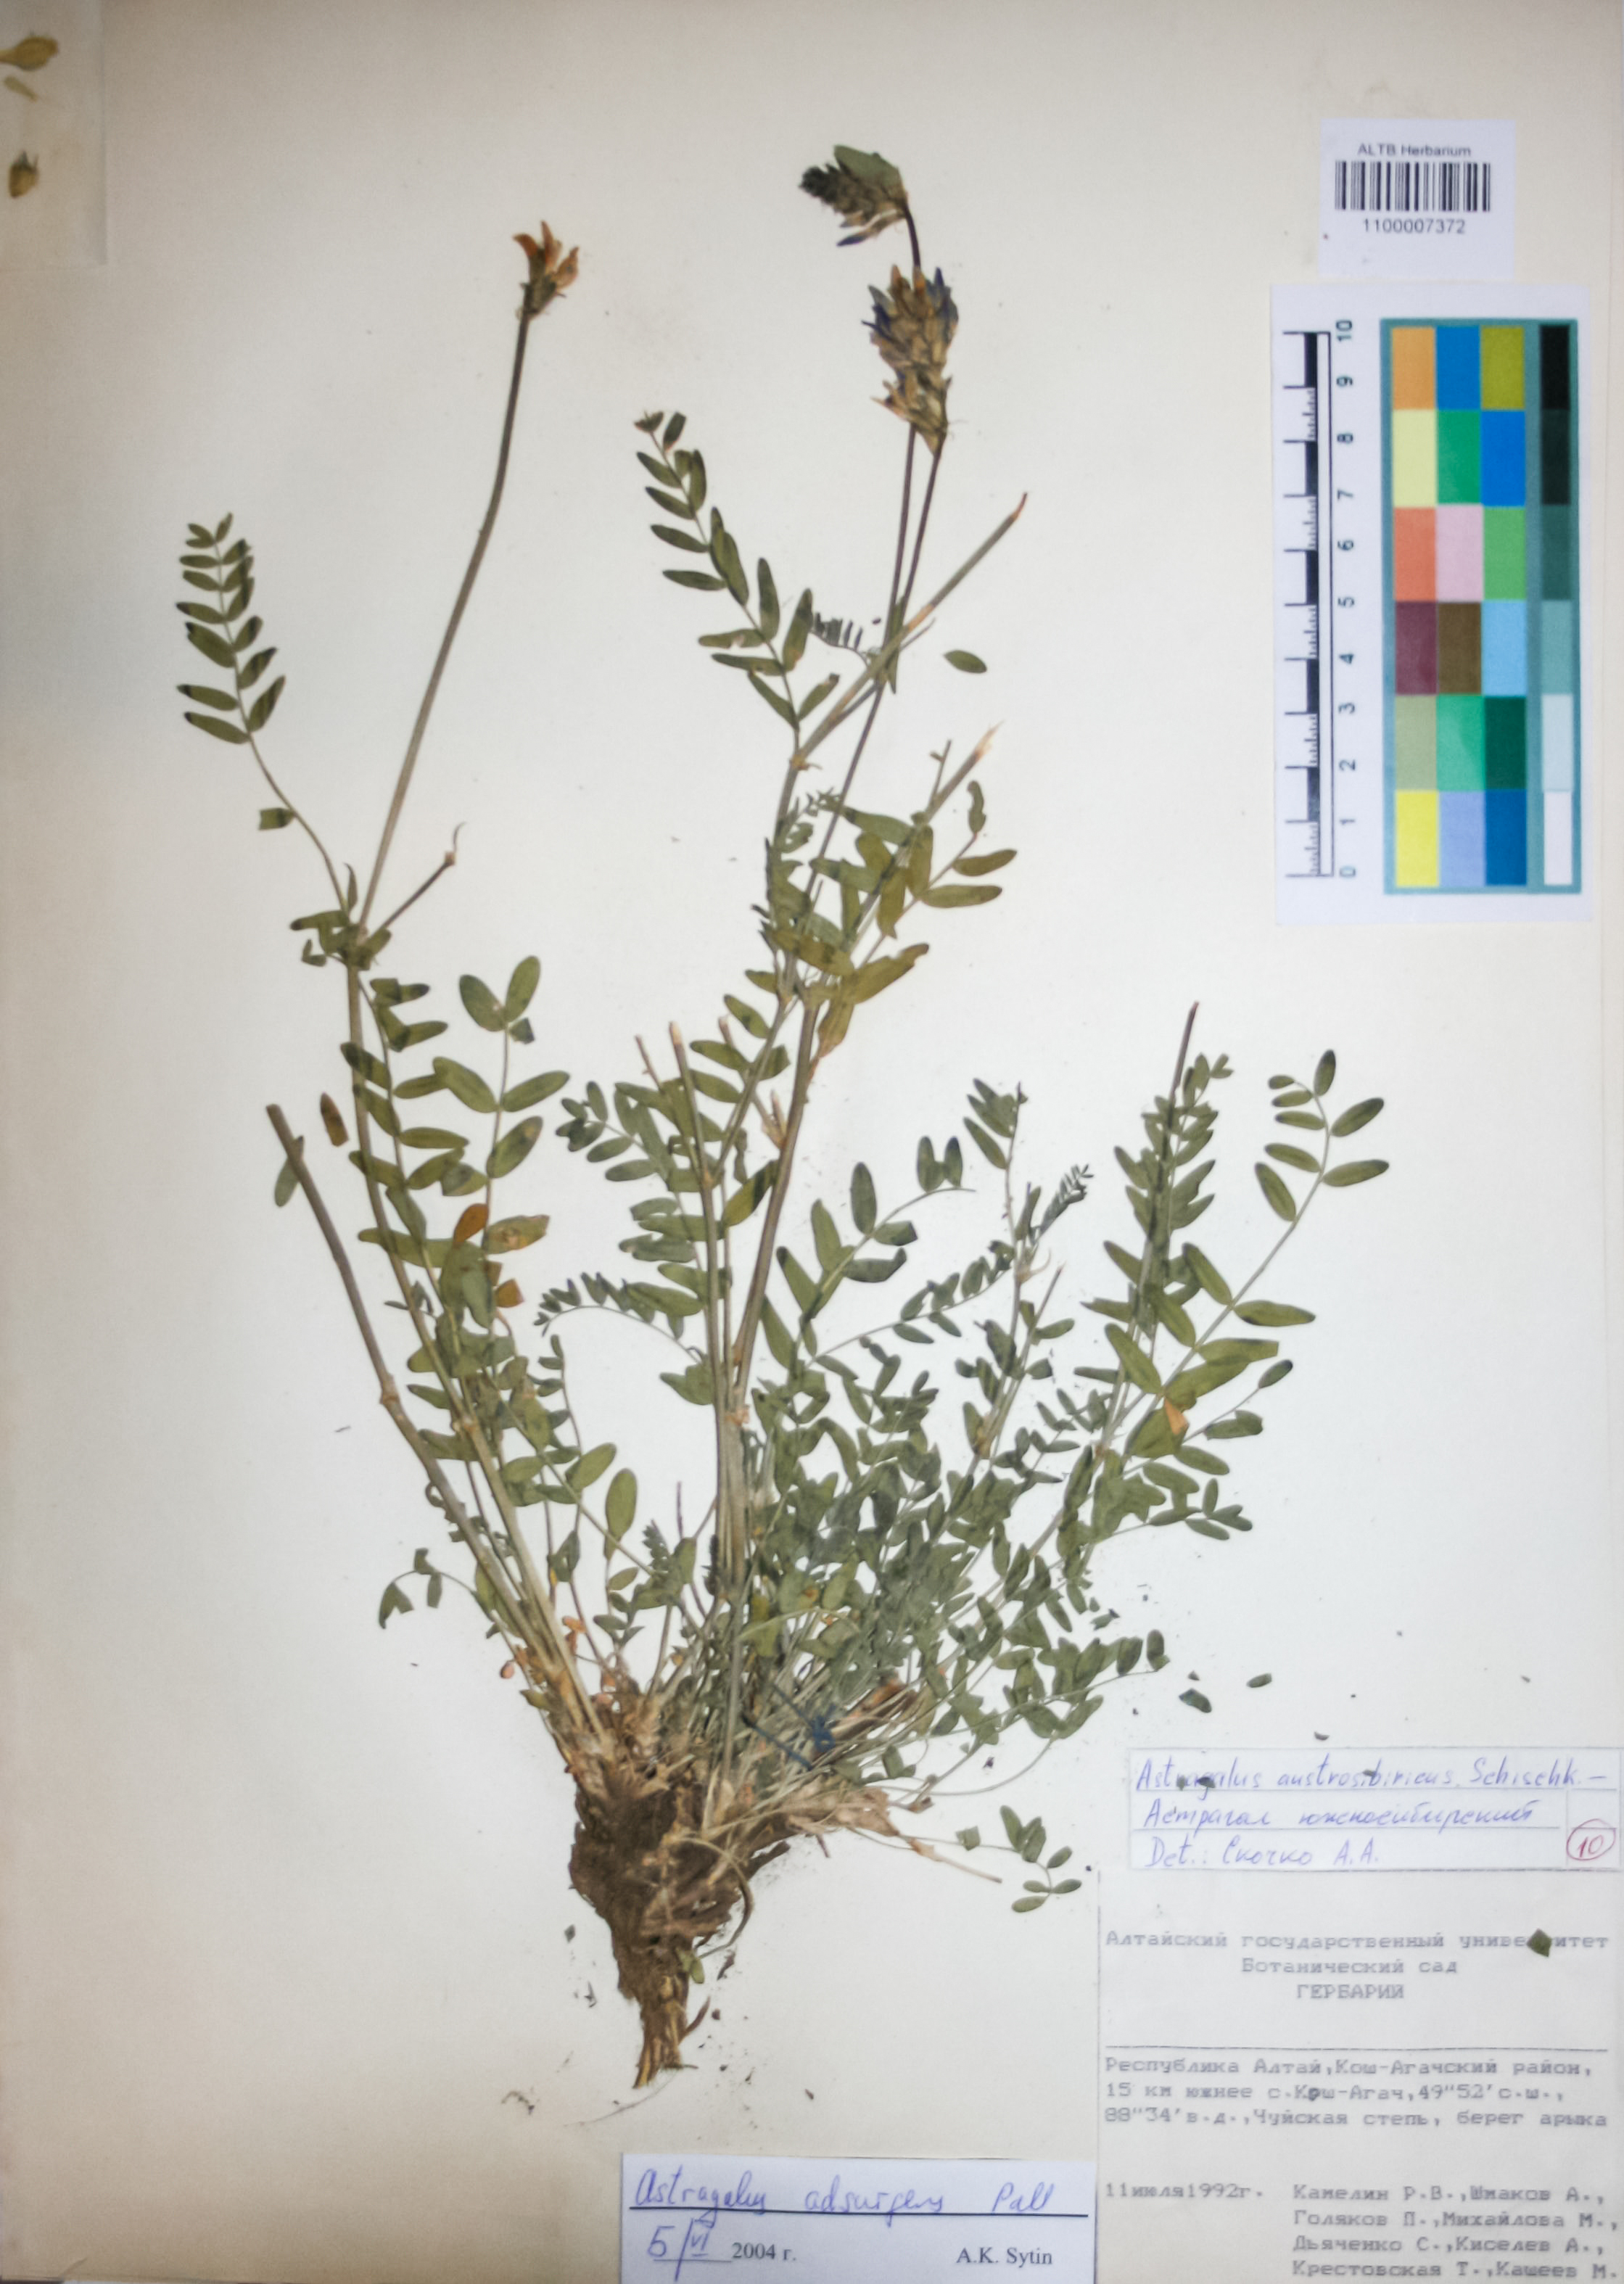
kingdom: Plantae
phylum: Tracheophyta
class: Magnoliopsida
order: Fabales
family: Fabaceae
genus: Astragalus
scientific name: Astragalus laxmannii
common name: Laxmann's milk-vetch
